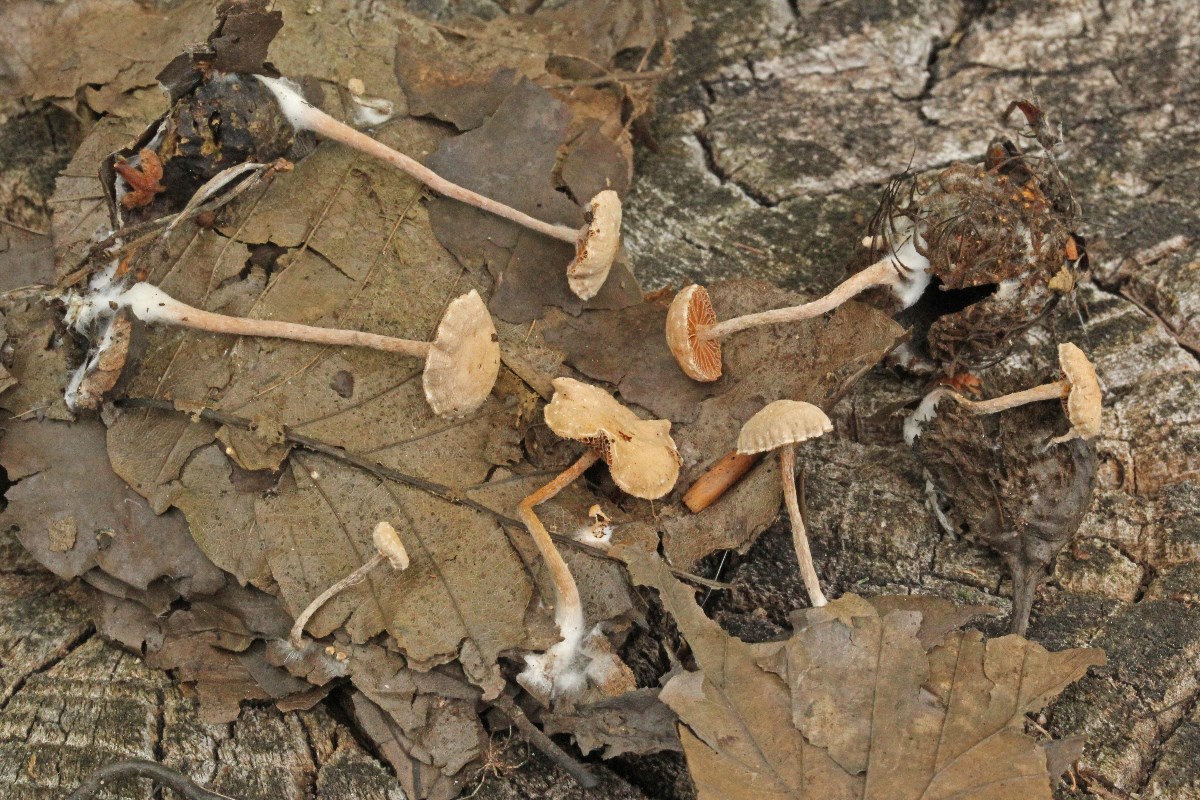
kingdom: Fungi
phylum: Basidiomycota
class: Agaricomycetes
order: Agaricales
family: Tubariaceae
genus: Tubaria
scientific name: Tubaria conspersa
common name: bleg fnughat
